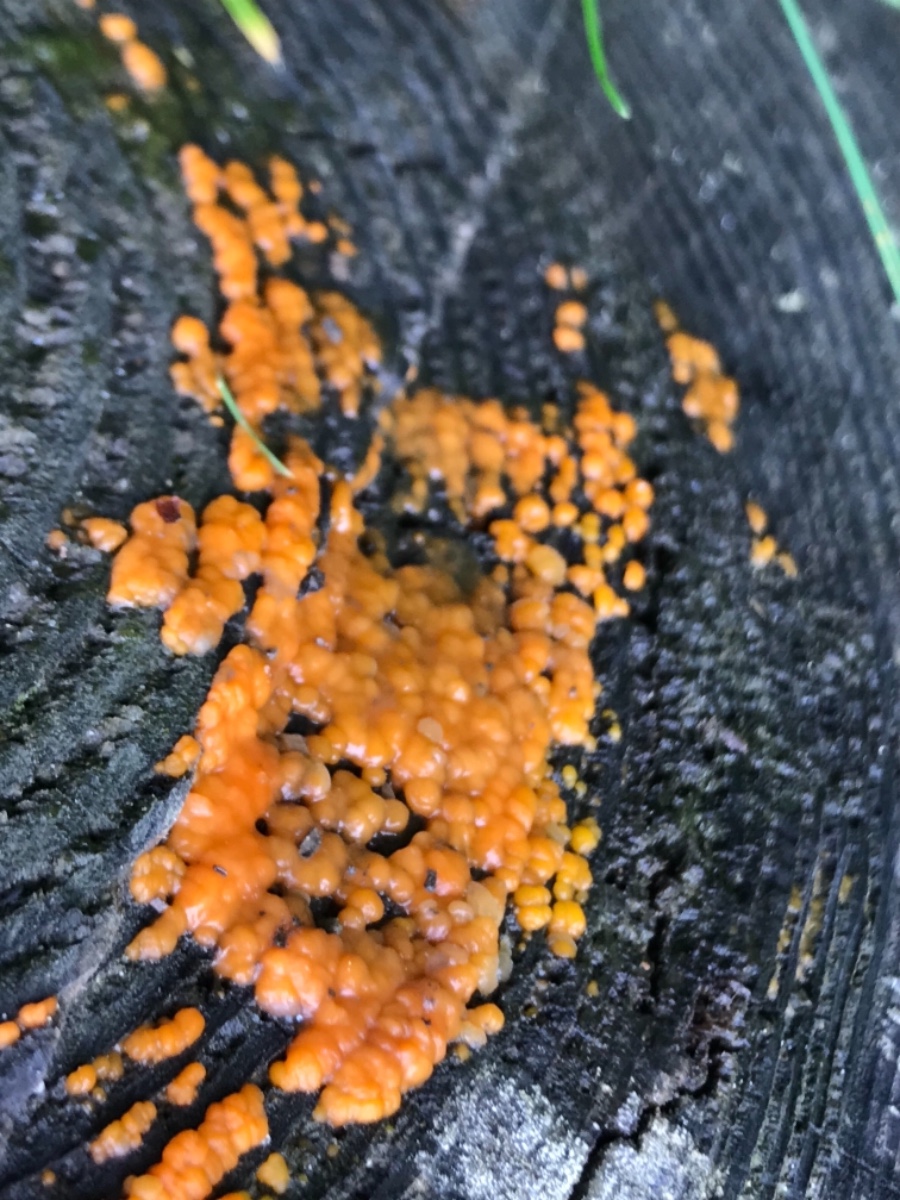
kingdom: Fungi
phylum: Basidiomycota
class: Dacrymycetes
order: Dacrymycetales
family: Dacrymycetaceae
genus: Dacrymyces
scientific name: Dacrymyces stillatus
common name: almindelig tåresvamp
